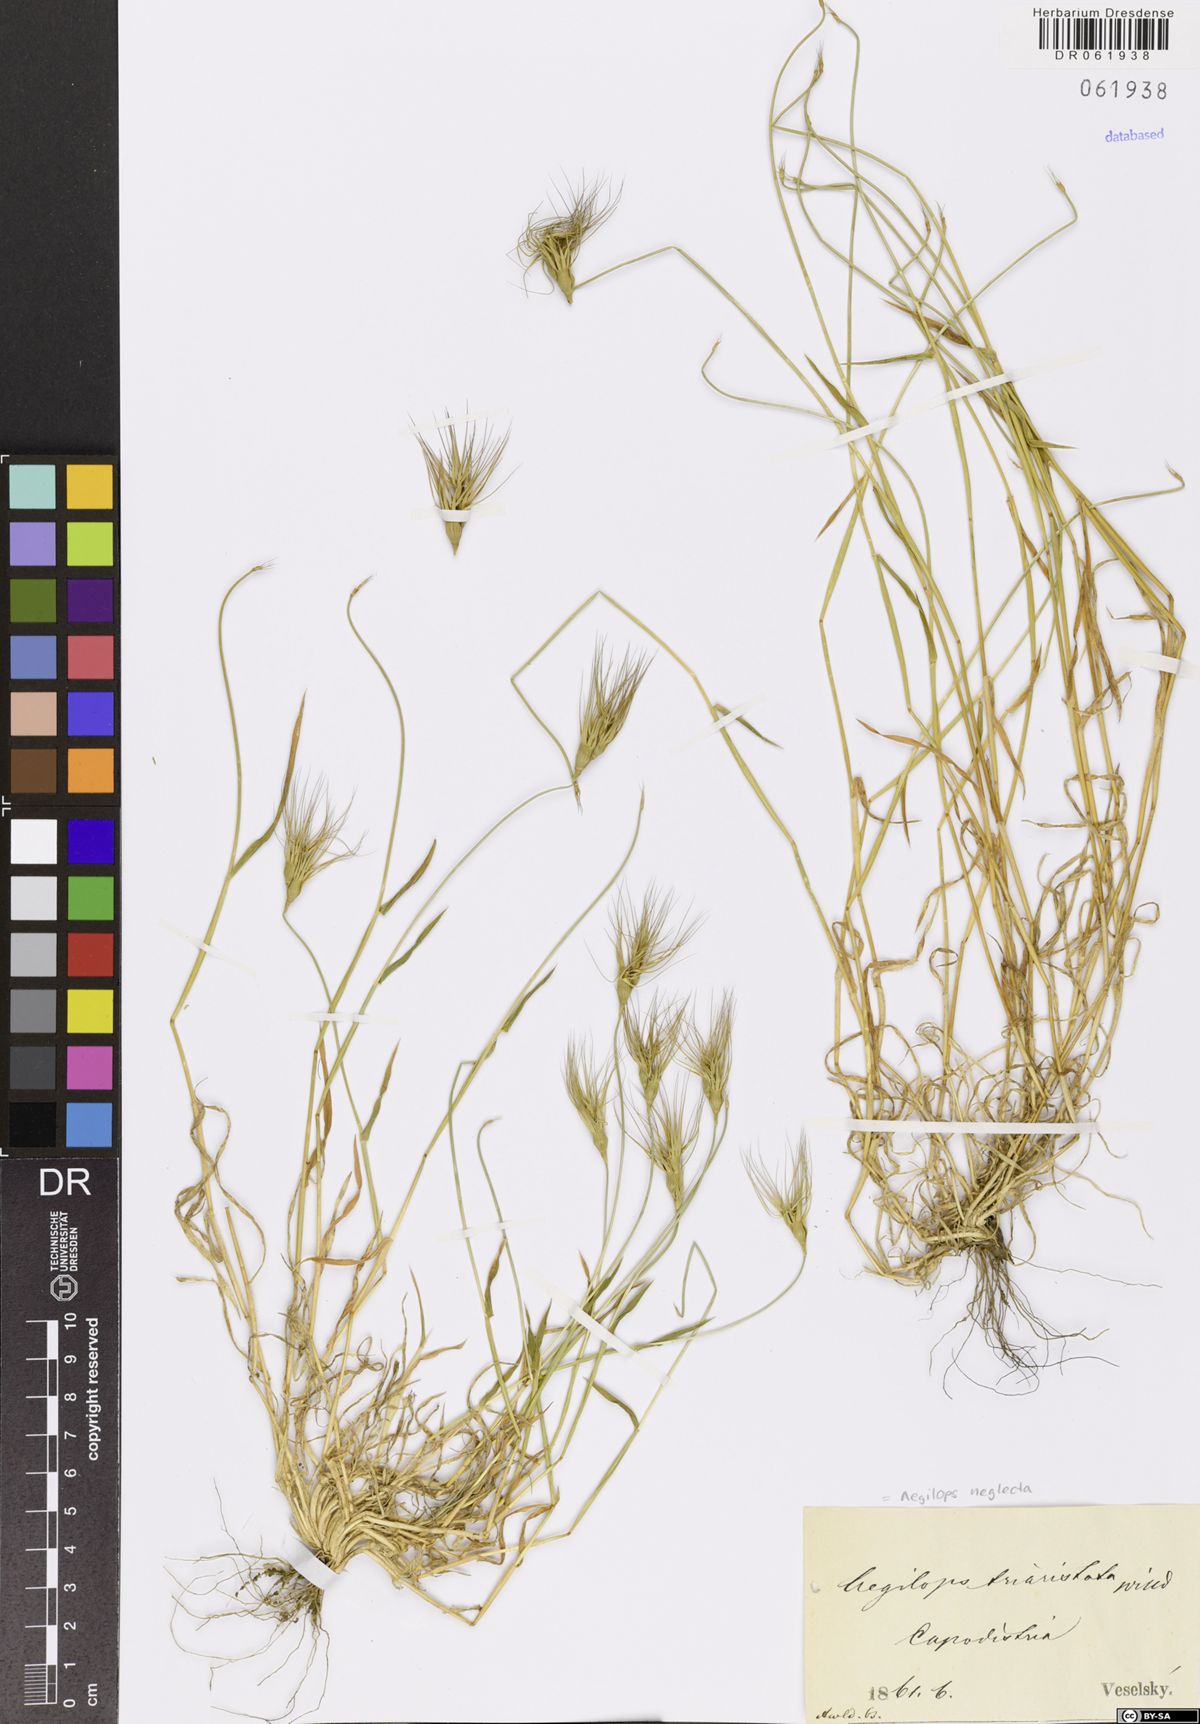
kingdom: Plantae
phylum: Tracheophyta
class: Liliopsida
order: Poales
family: Poaceae
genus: Aegilops
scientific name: Aegilops neglecta
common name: Three-awn goat grass
